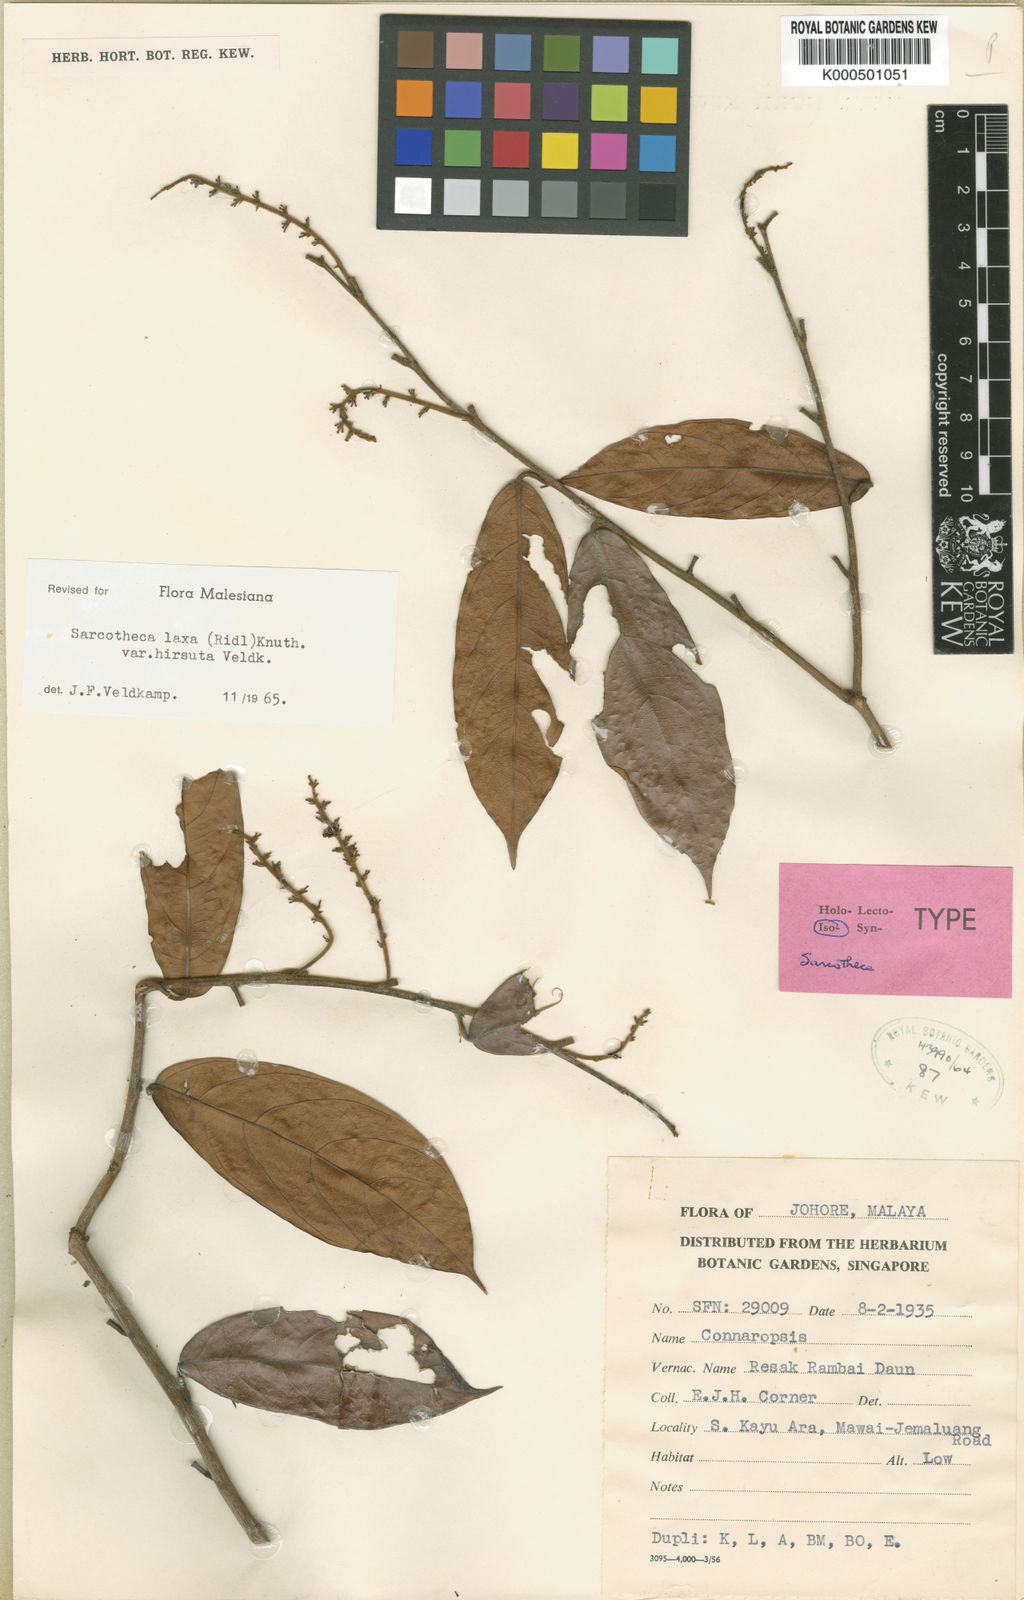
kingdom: Plantae
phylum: Tracheophyta
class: Magnoliopsida
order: Oxalidales
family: Oxalidaceae
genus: Sarcotheca
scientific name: Sarcotheca laxa
